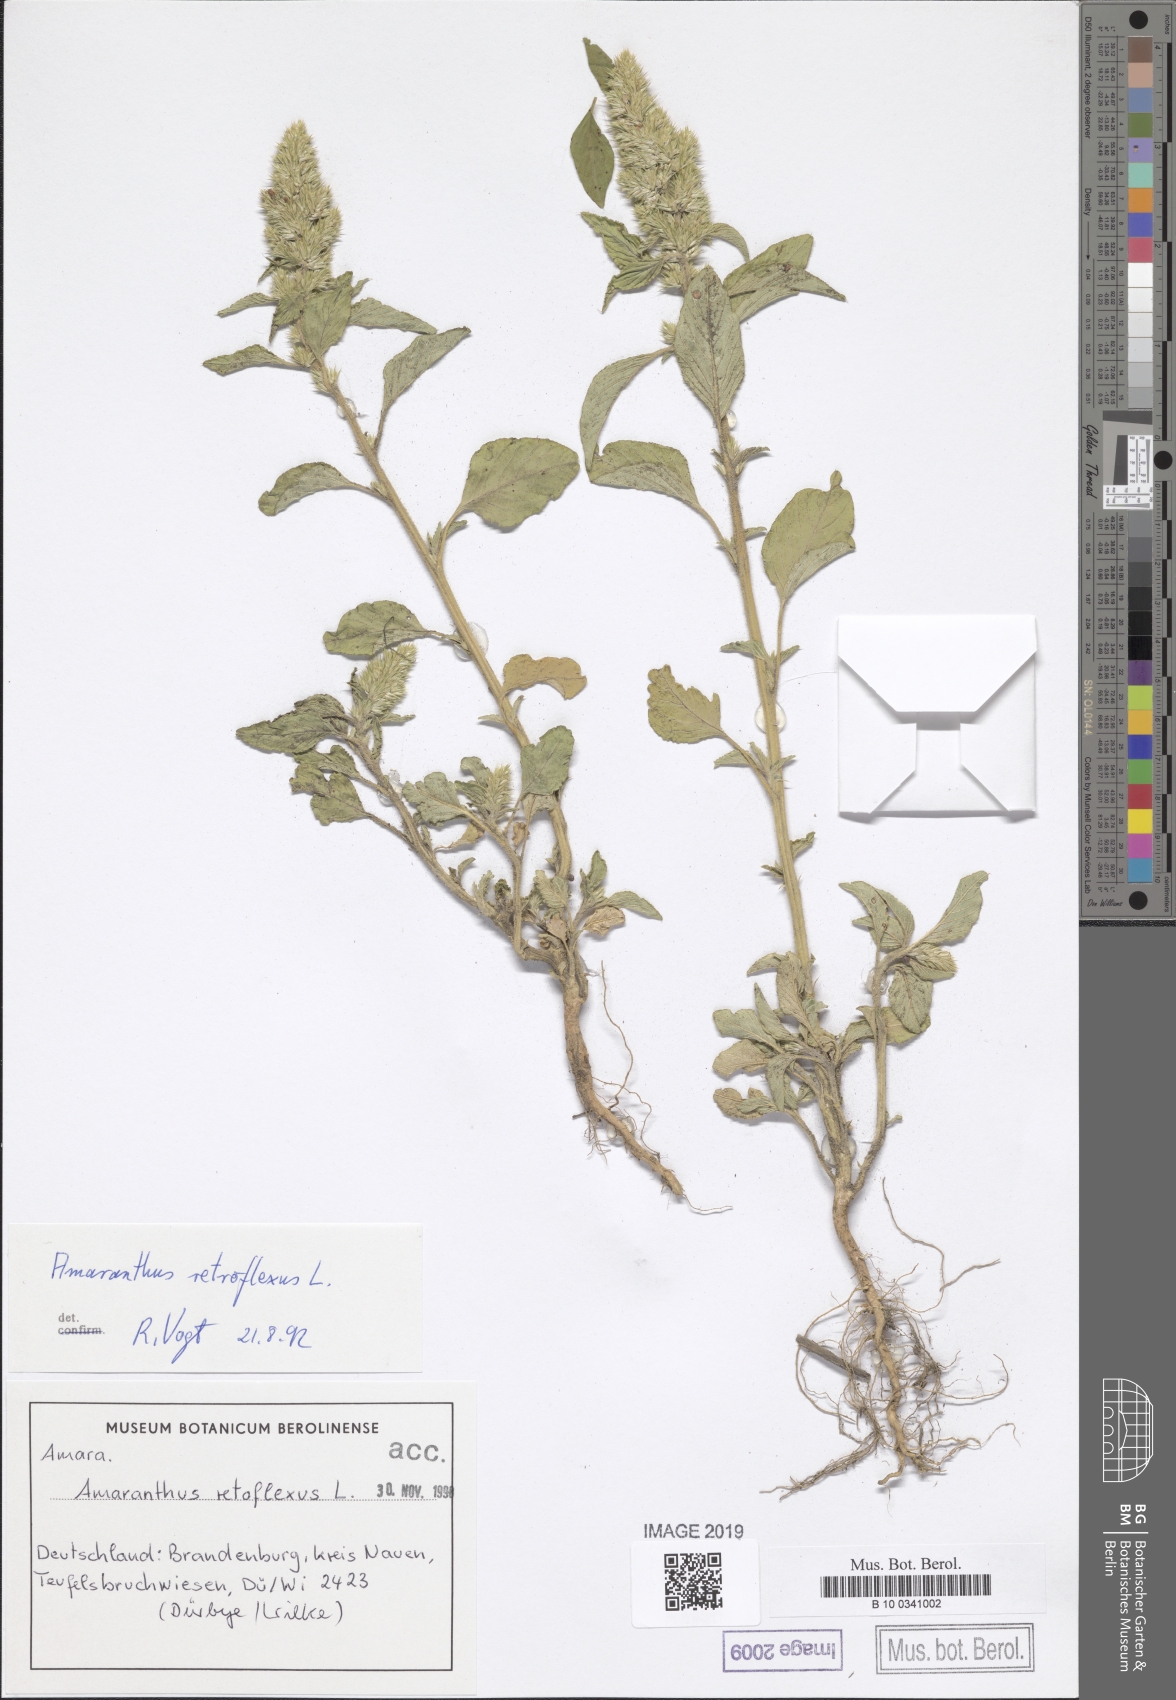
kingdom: Plantae
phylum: Tracheophyta
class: Magnoliopsida
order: Caryophyllales
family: Amaranthaceae
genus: Amaranthus
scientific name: Amaranthus retroflexus
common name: Redroot amaranth
